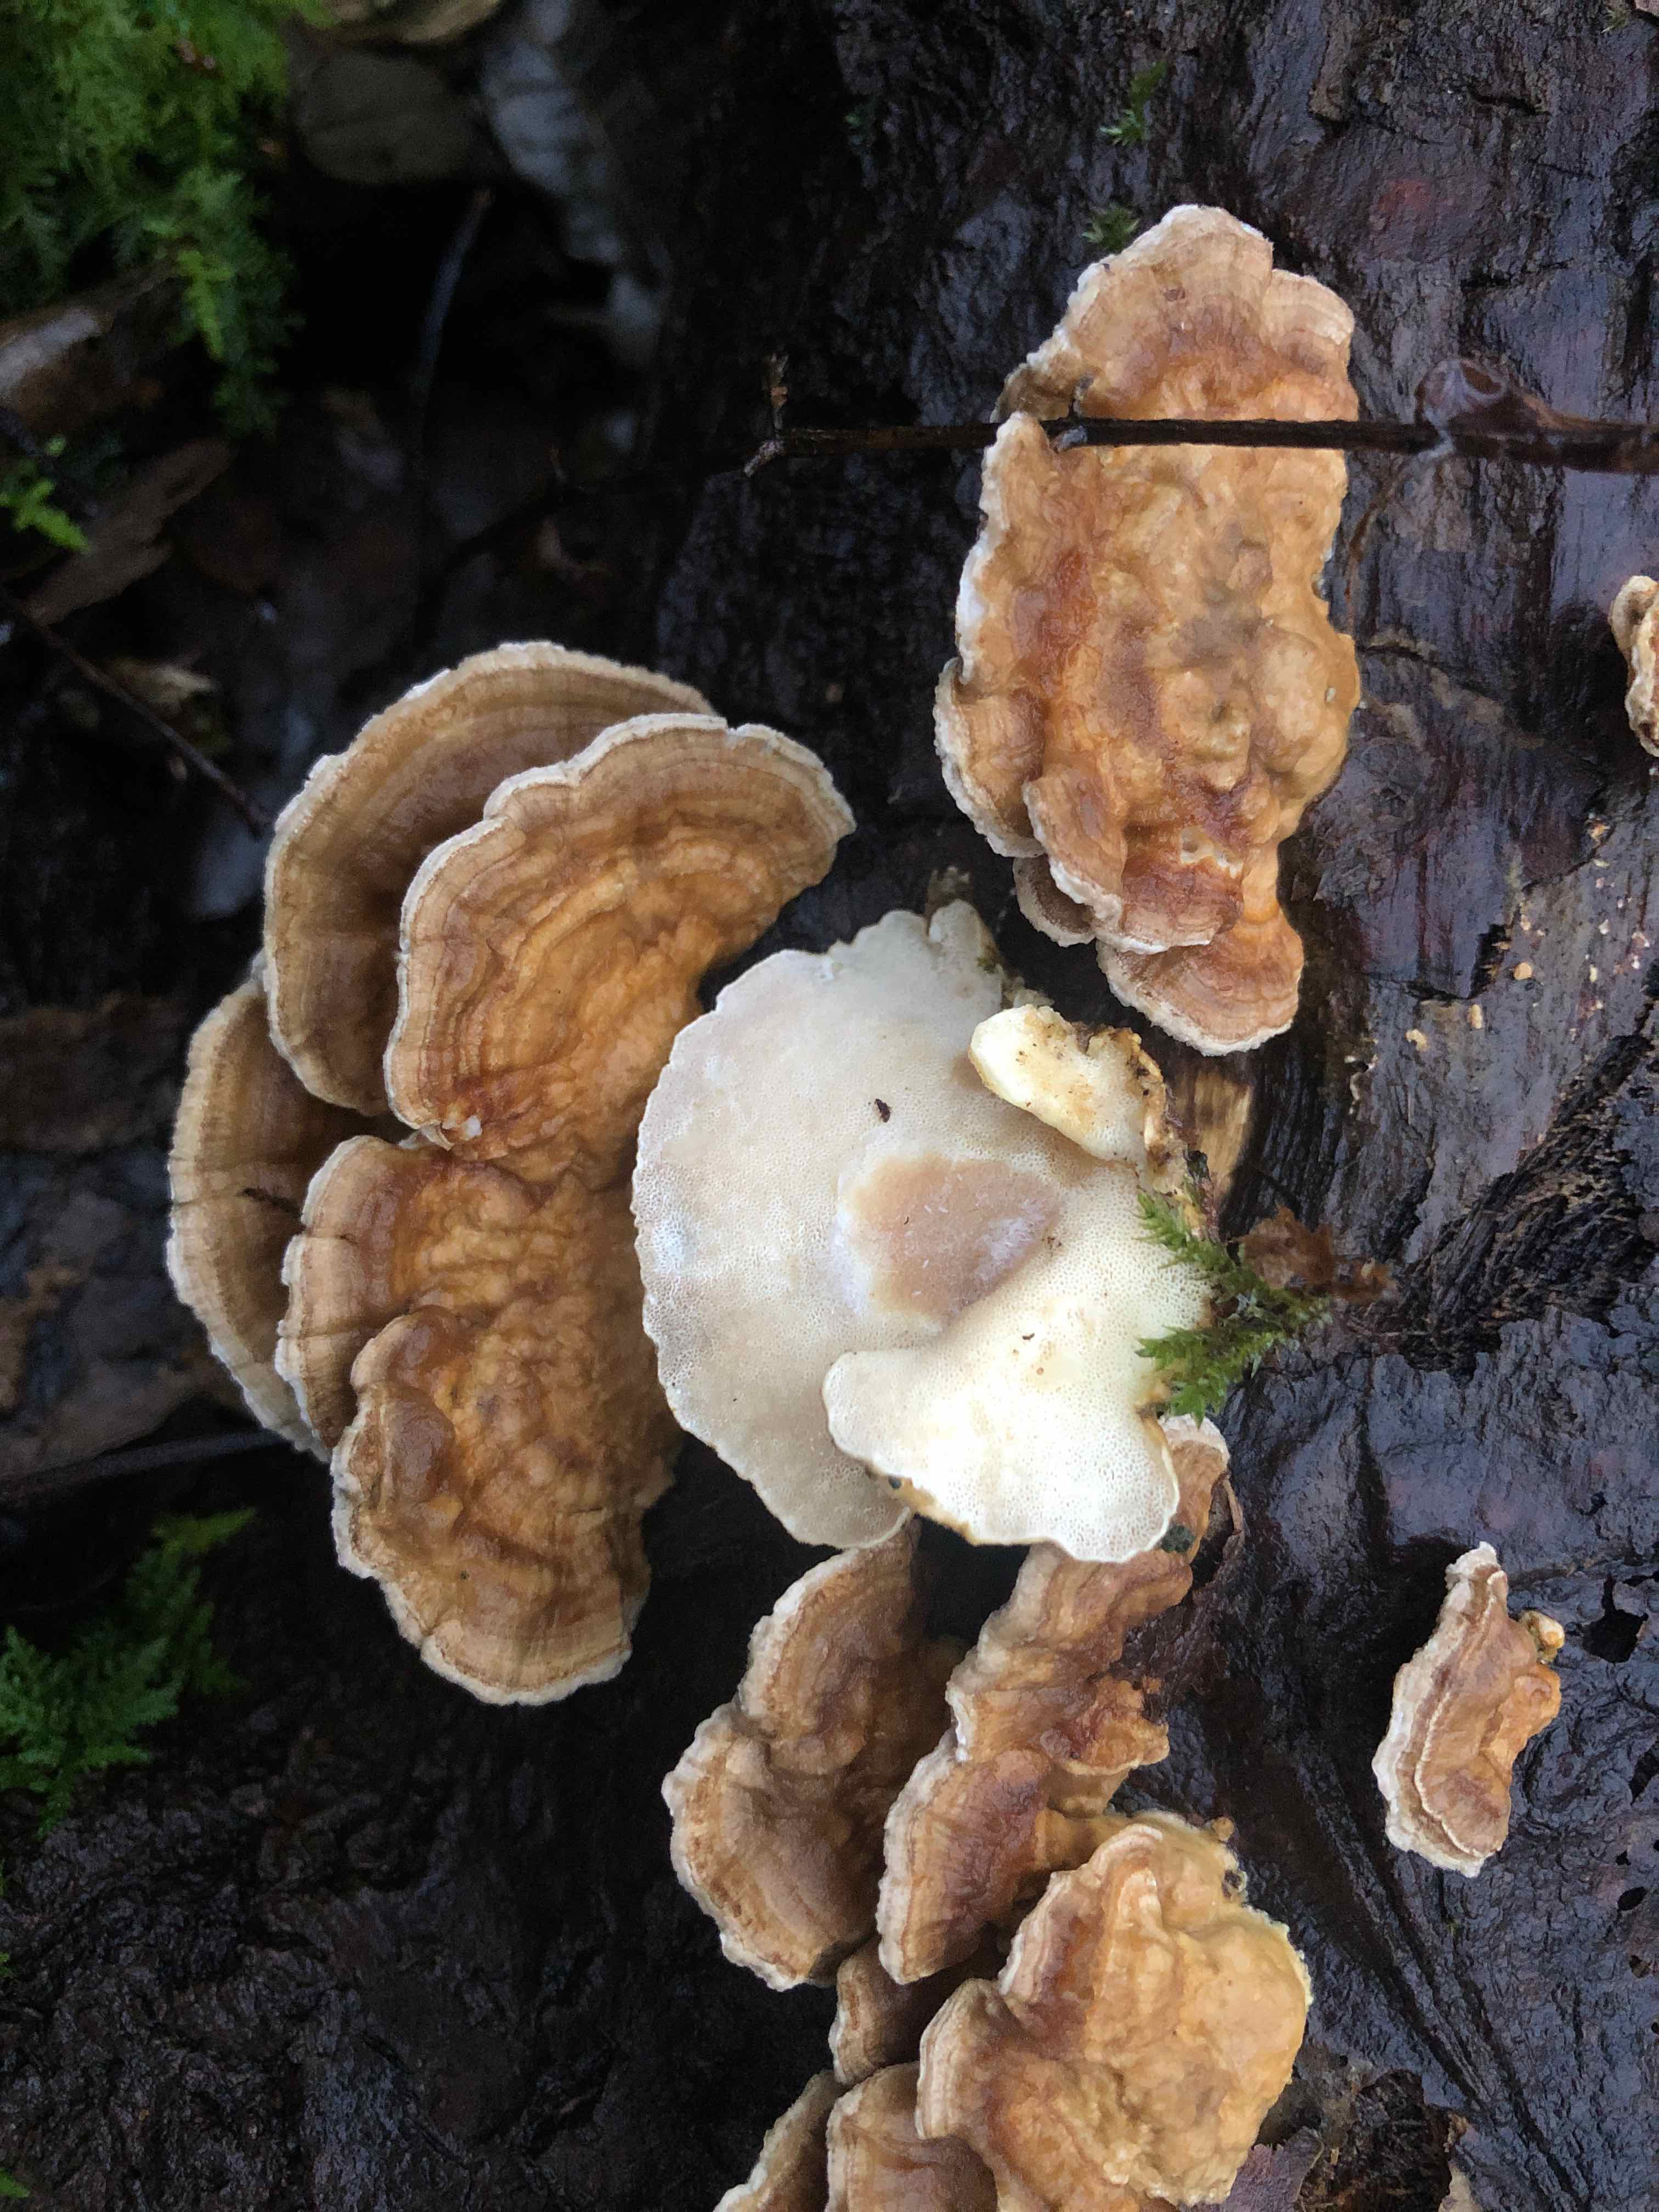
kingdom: Fungi
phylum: Basidiomycota
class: Agaricomycetes
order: Polyporales
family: Polyporaceae
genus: Trametes
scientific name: Trametes ochracea
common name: bæltet læderporesvamp
